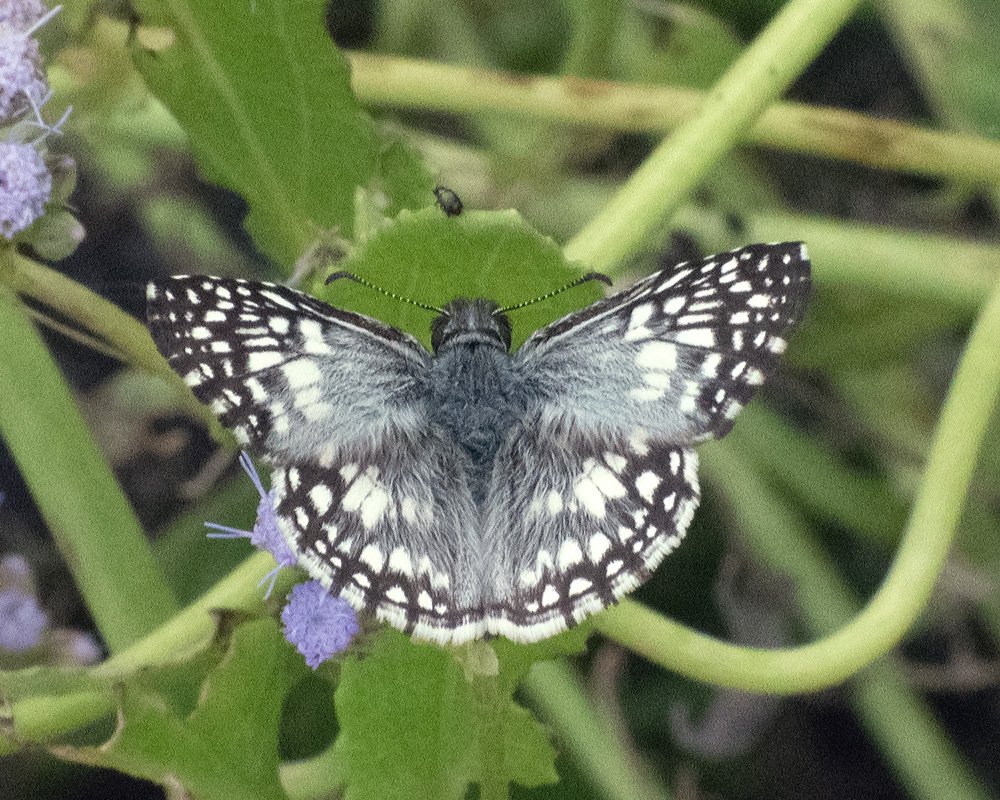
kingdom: Animalia
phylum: Arthropoda
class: Insecta
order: Lepidoptera
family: Hesperiidae
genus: Pyrgus
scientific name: Pyrgus oileus
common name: Tropical Checkered-Skipper
